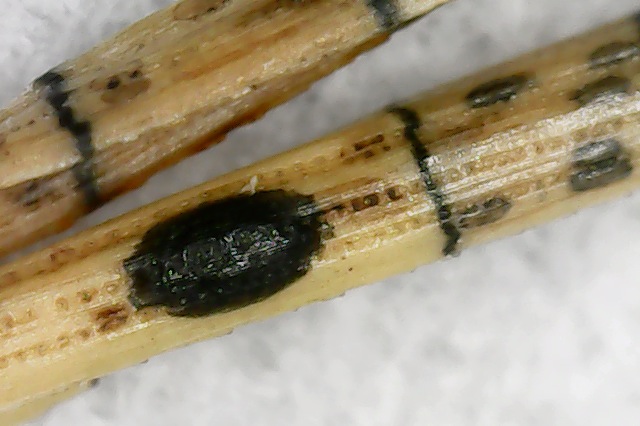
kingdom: Fungi
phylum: Ascomycota
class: Leotiomycetes
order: Rhytismatales
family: Rhytismataceae
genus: Lophodermium
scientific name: Lophodermium pinastri
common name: fyrre-fureplet
